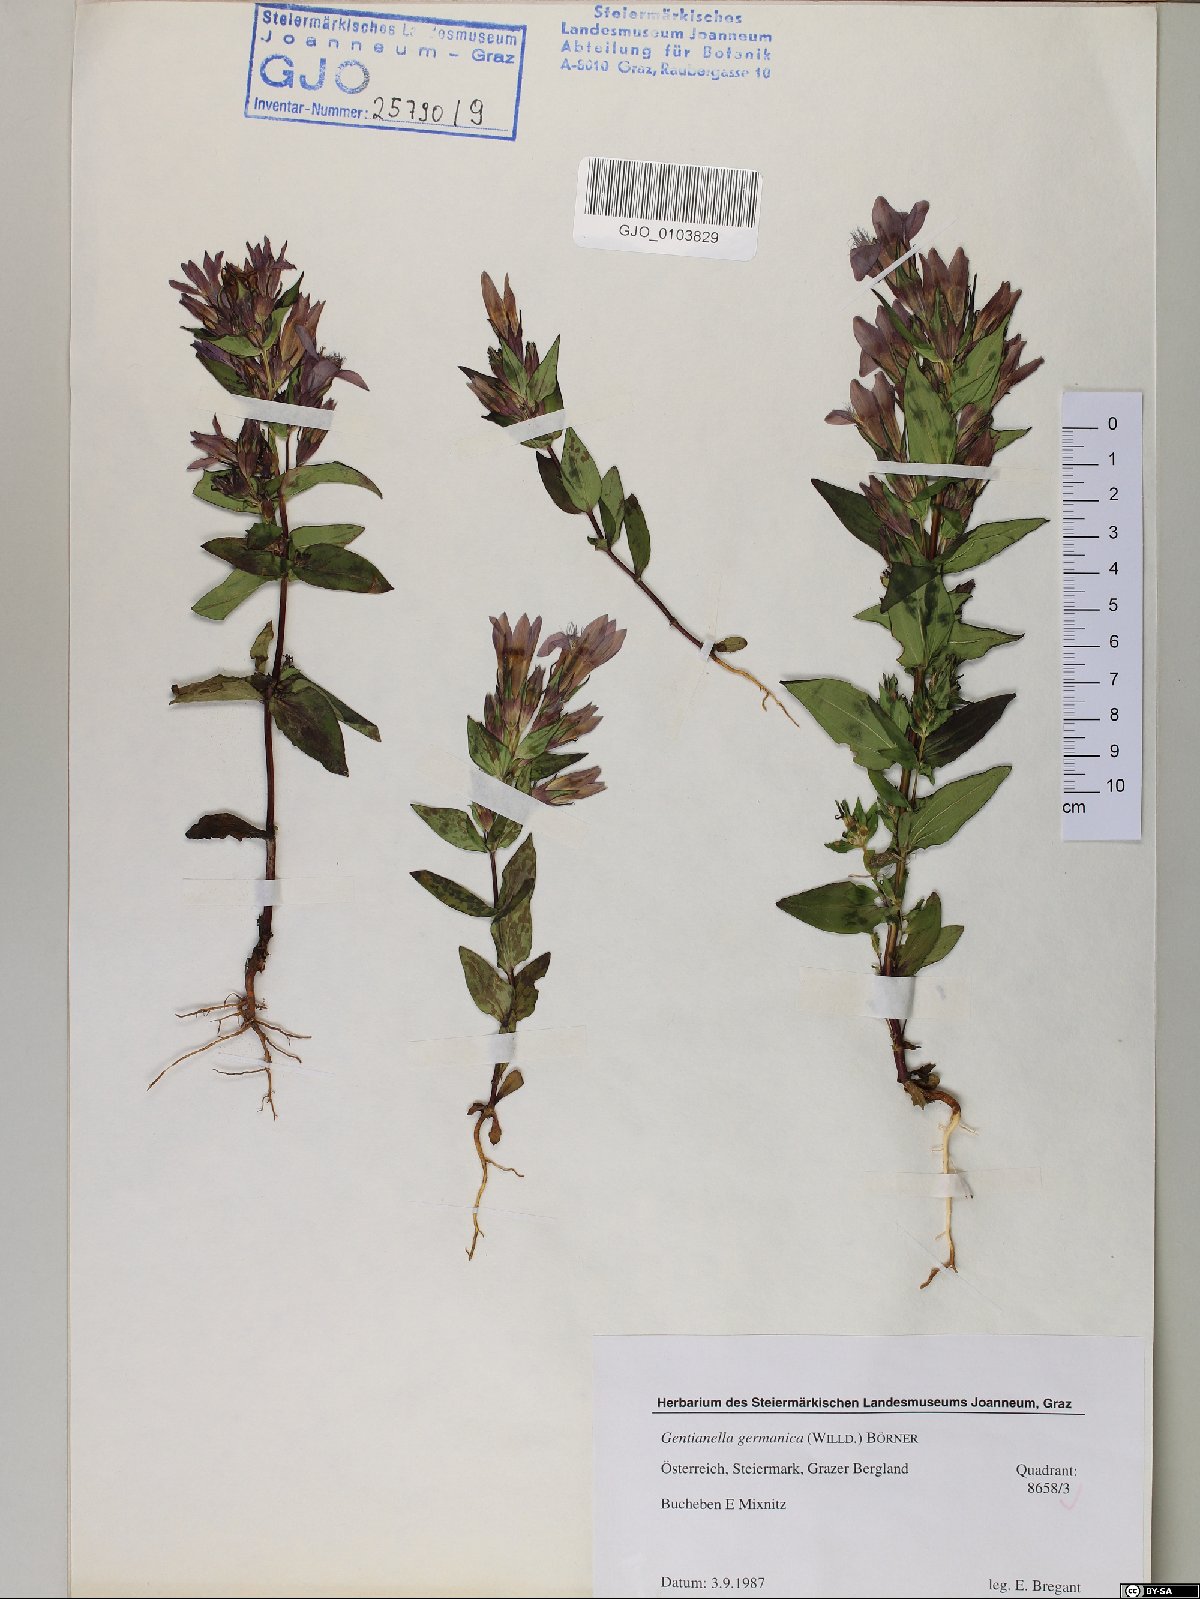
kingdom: Plantae
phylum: Tracheophyta
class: Magnoliopsida
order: Gentianales
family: Gentianaceae
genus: Gentianella
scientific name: Gentianella germanica
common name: Chiltern-gentian
